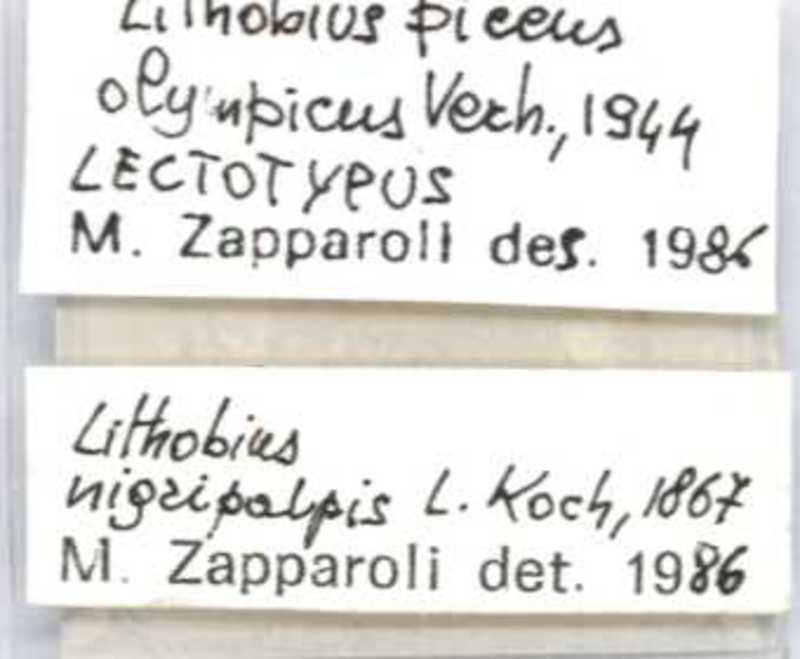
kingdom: Animalia
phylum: Arthropoda
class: Chilopoda
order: Lithobiomorpha
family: Lithobiidae
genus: Lithobius
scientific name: Lithobius nigripalpis
